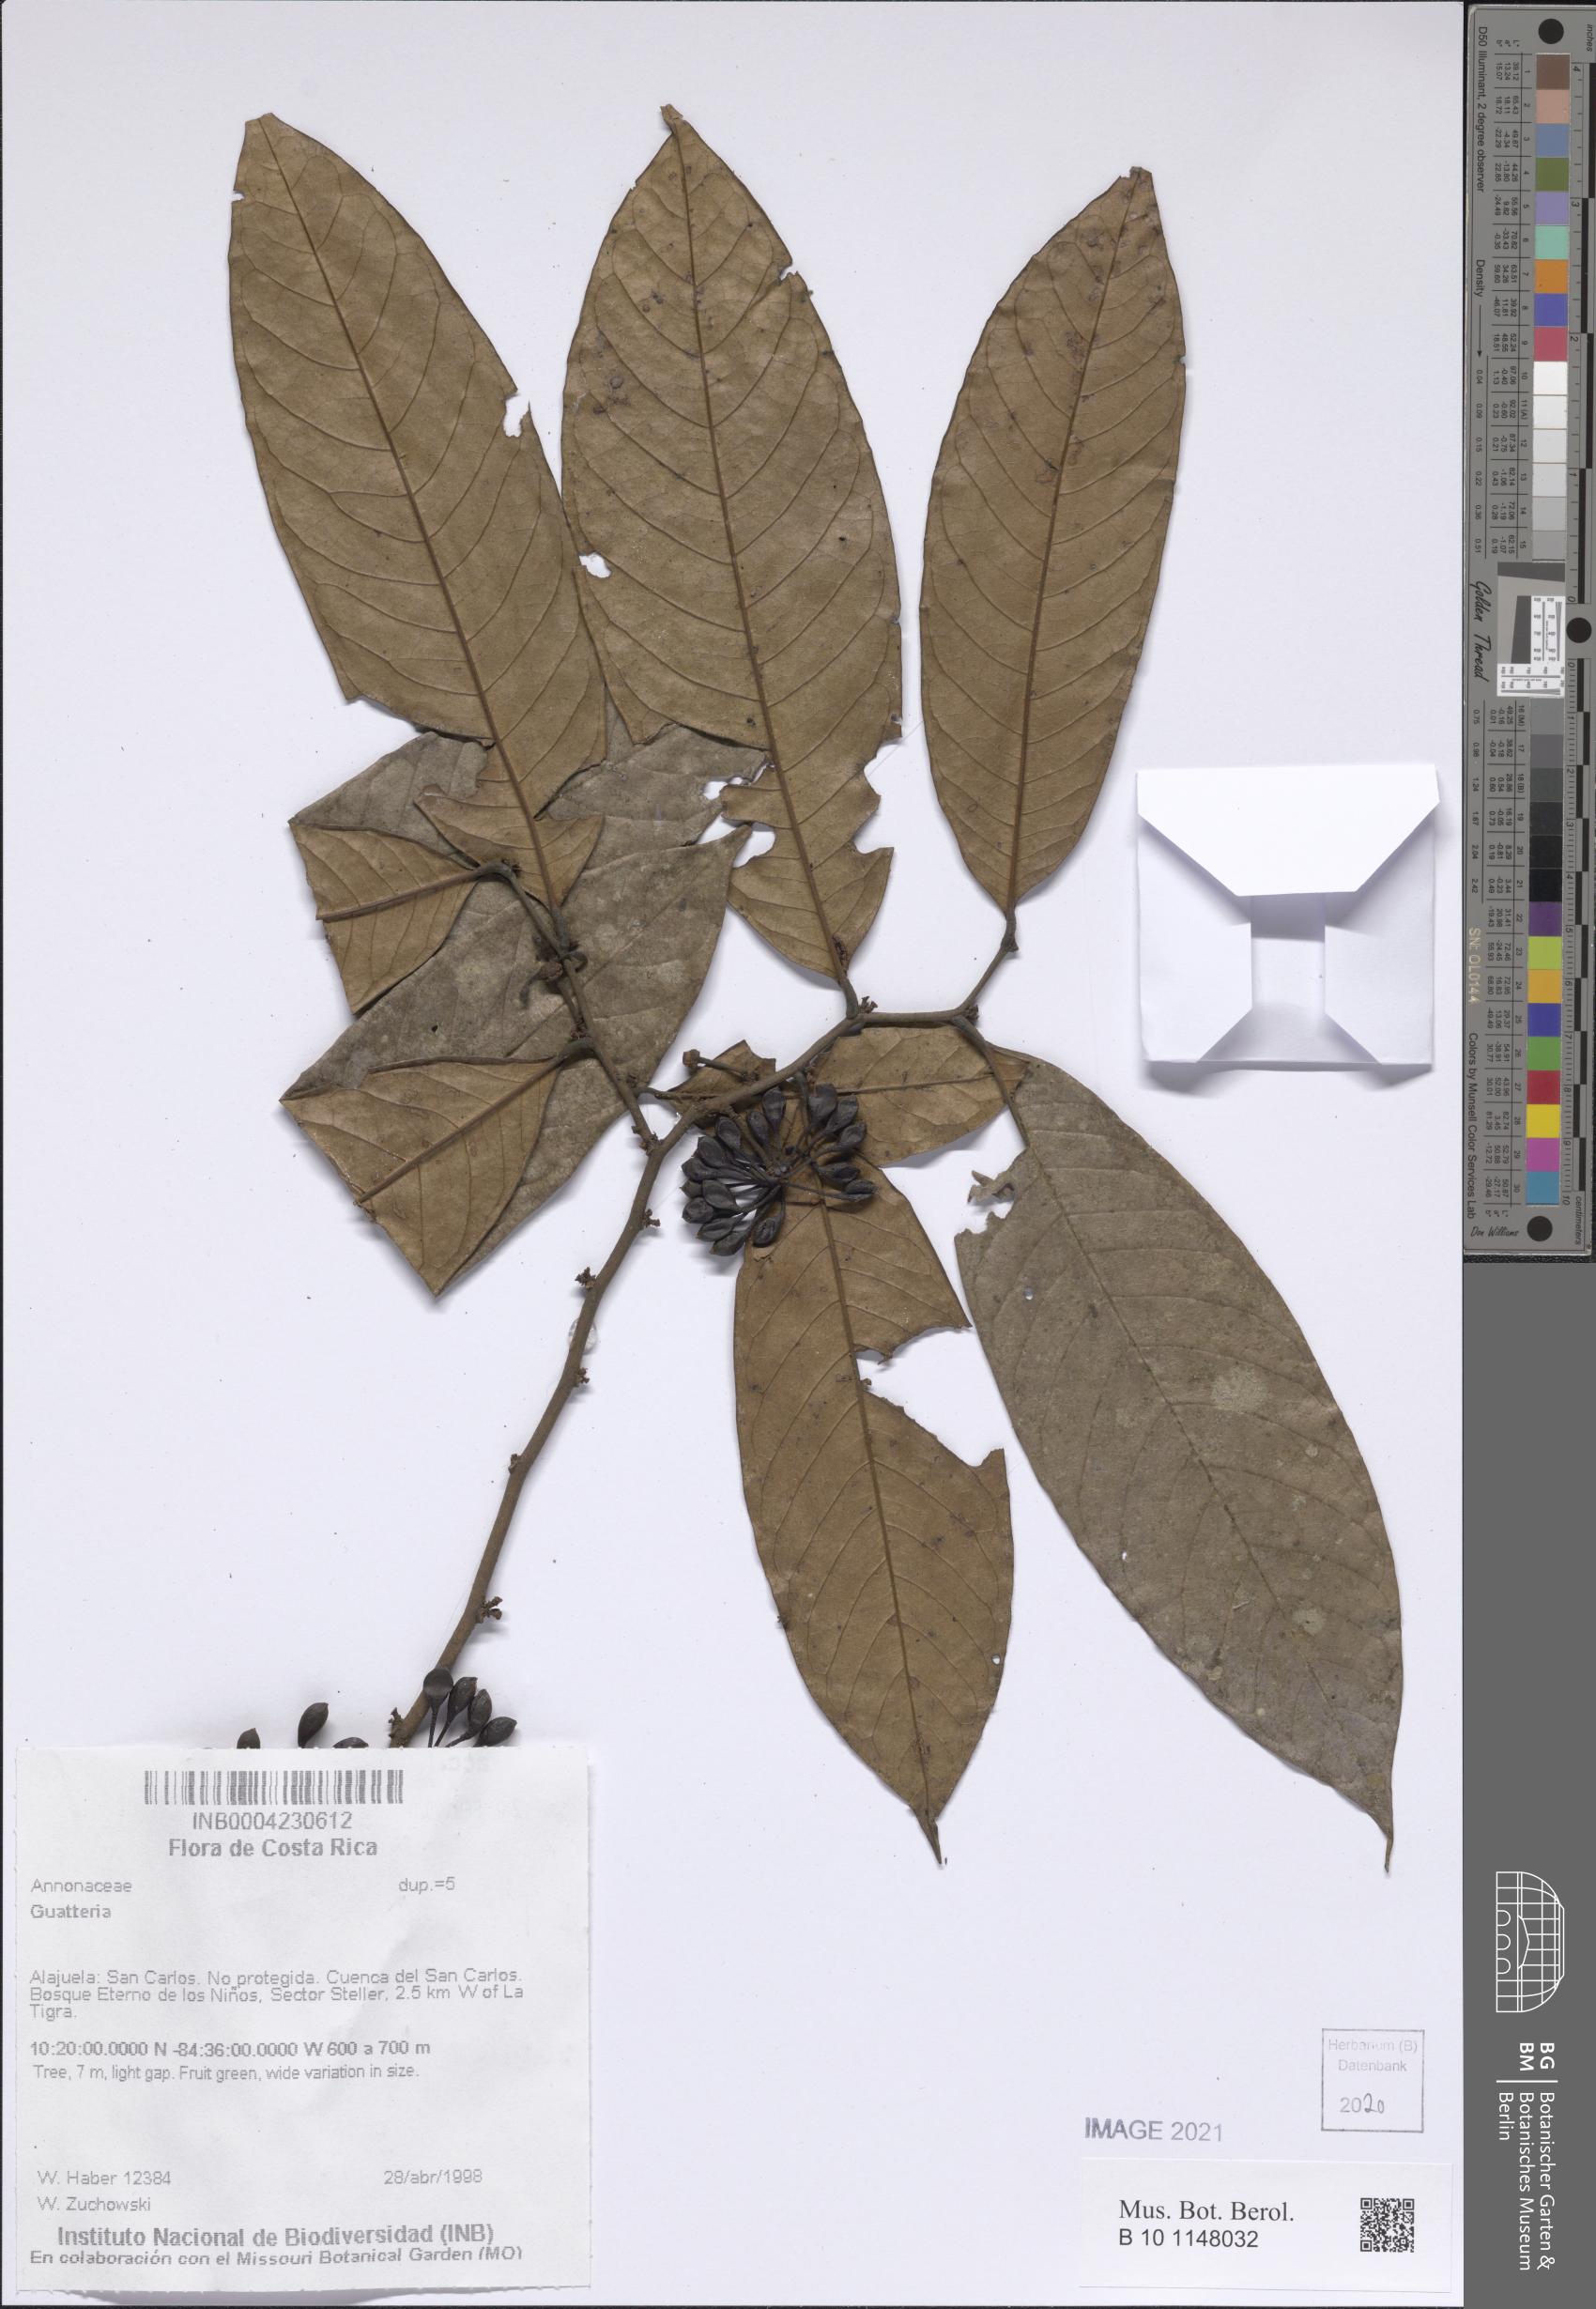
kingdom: Plantae
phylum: Tracheophyta
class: Magnoliopsida
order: Magnoliales
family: Annonaceae
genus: Guatteria
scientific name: Guatteria
